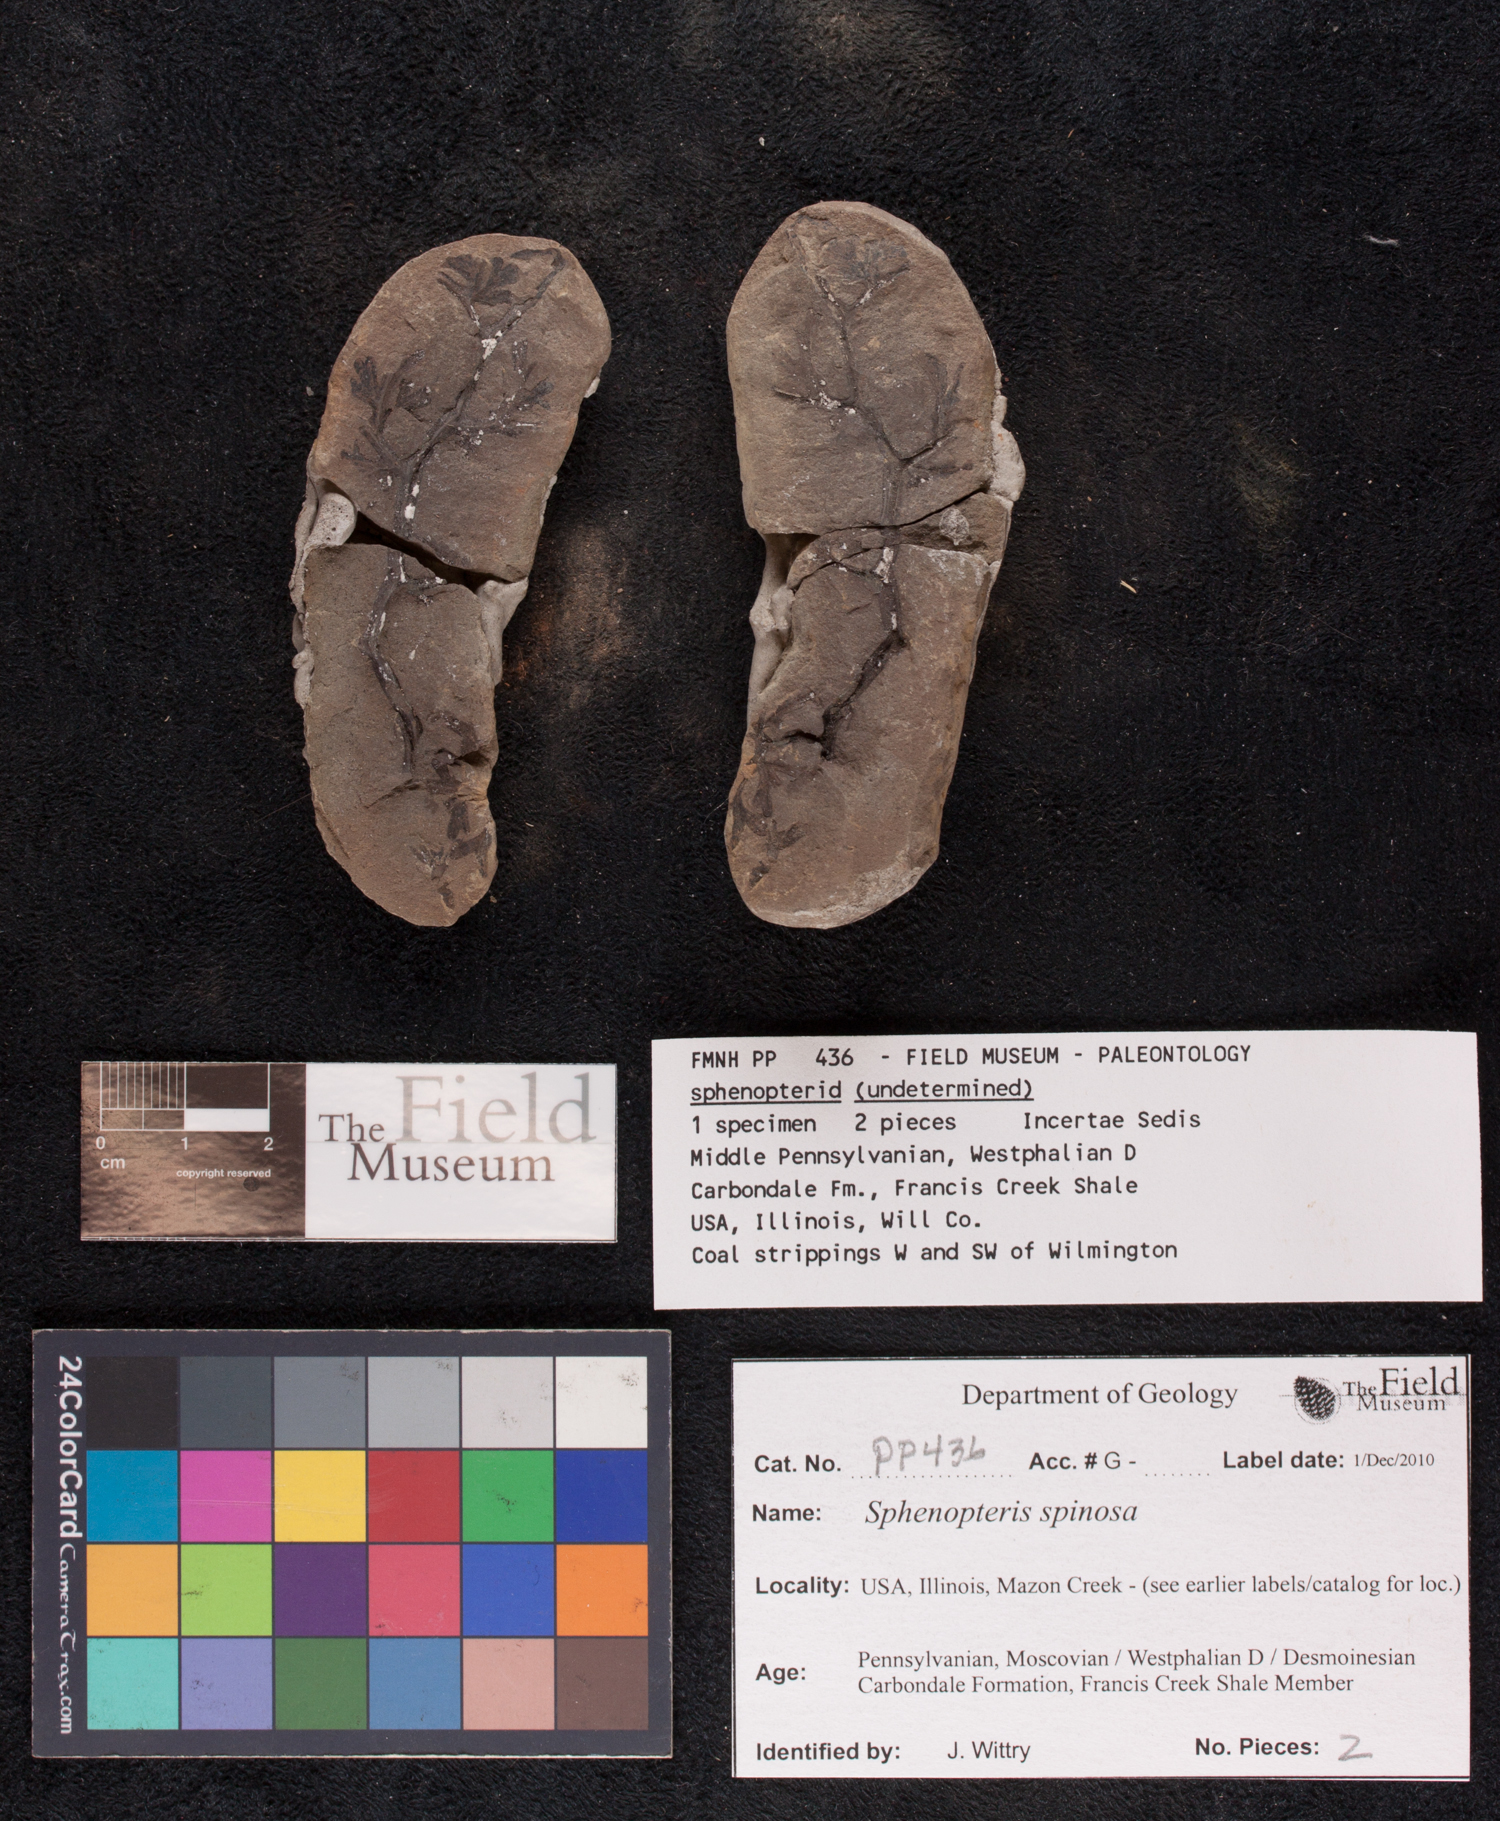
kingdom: Plantae
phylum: Tracheophyta
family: Lyginopteridaceae
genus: Sphenopteris
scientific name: Sphenopteris
